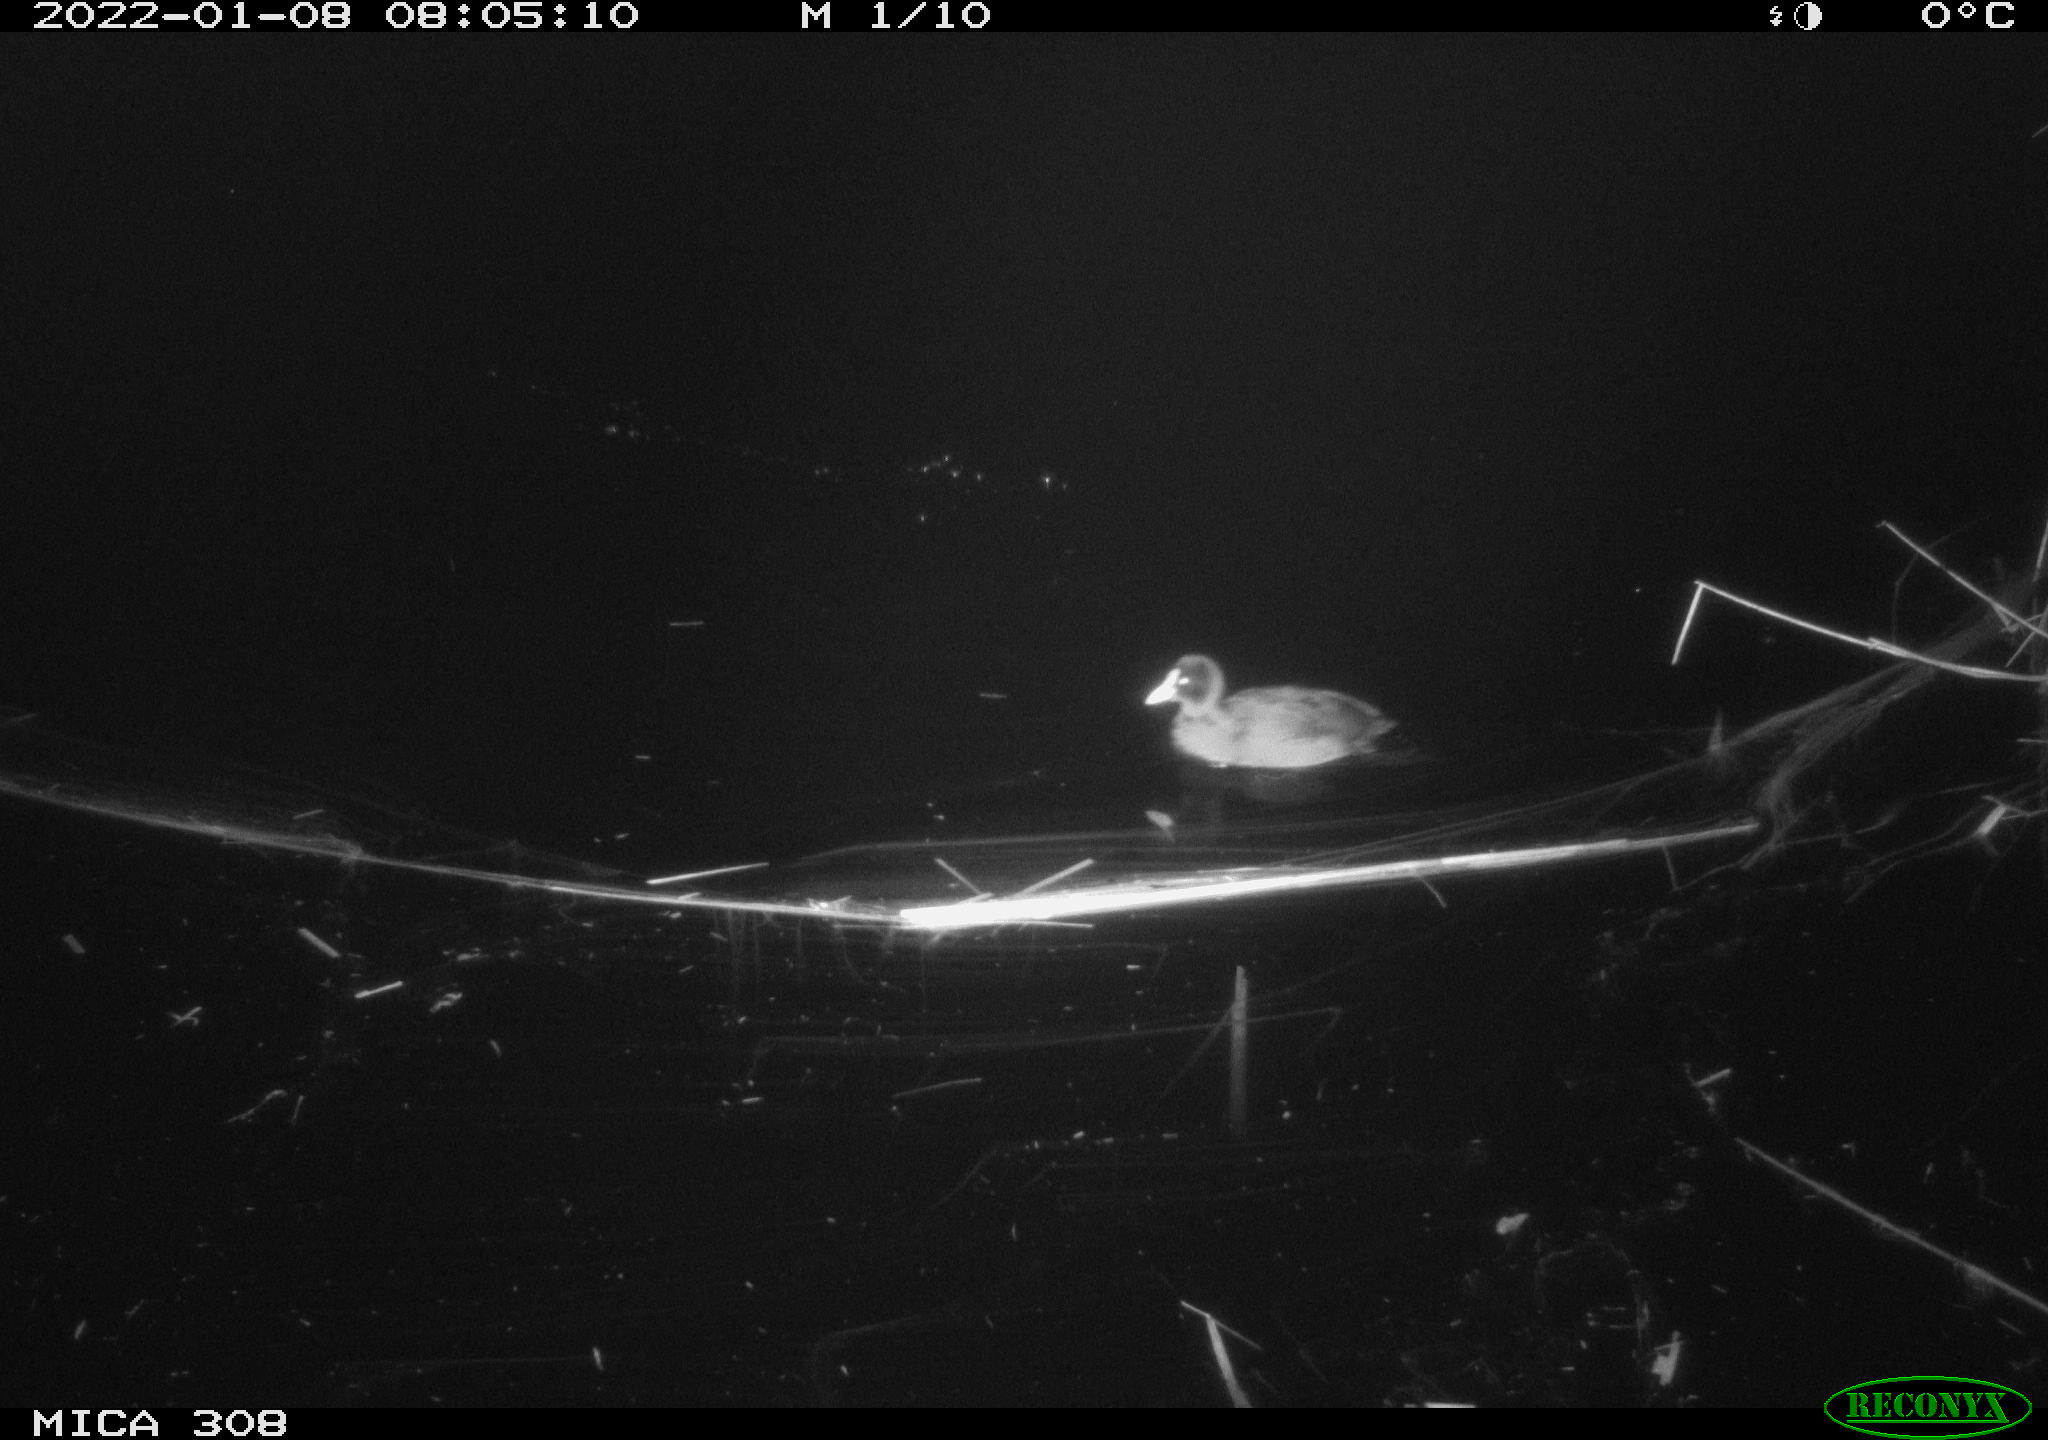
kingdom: Animalia
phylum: Chordata
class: Aves
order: Gruiformes
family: Rallidae
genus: Fulica
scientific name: Fulica atra
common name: Eurasian coot
